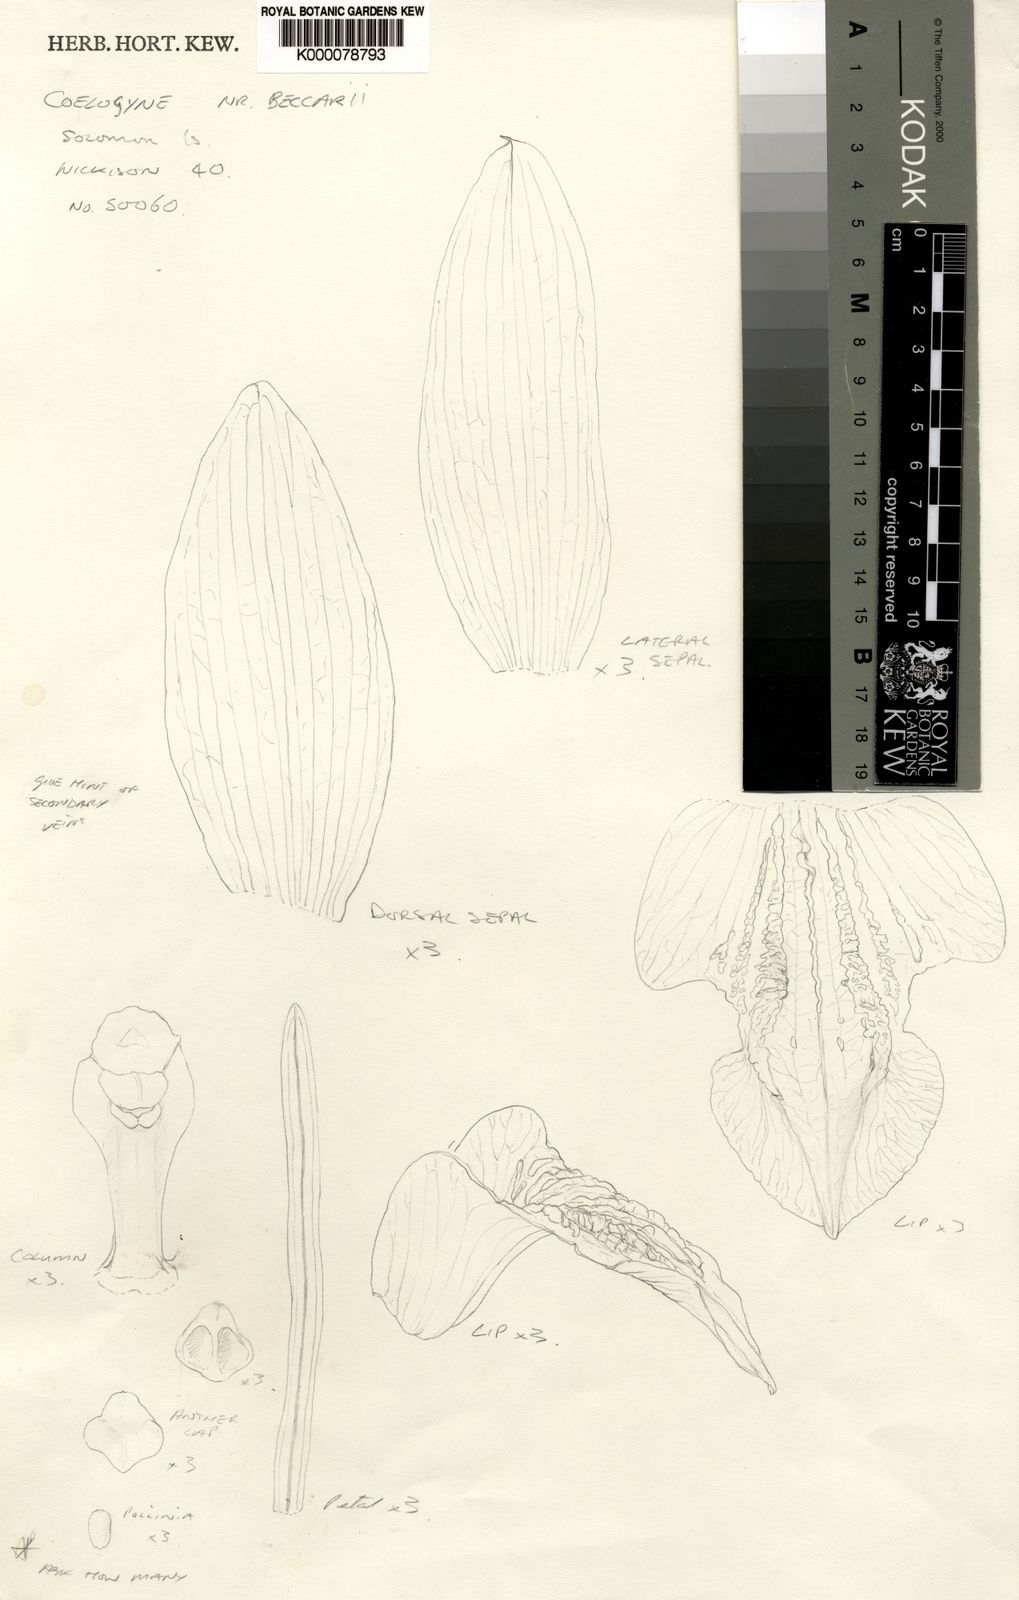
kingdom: Plantae
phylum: Tracheophyta
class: Liliopsida
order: Asparagales
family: Orchidaceae
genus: Coelogyne
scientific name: Coelogyne susanae
